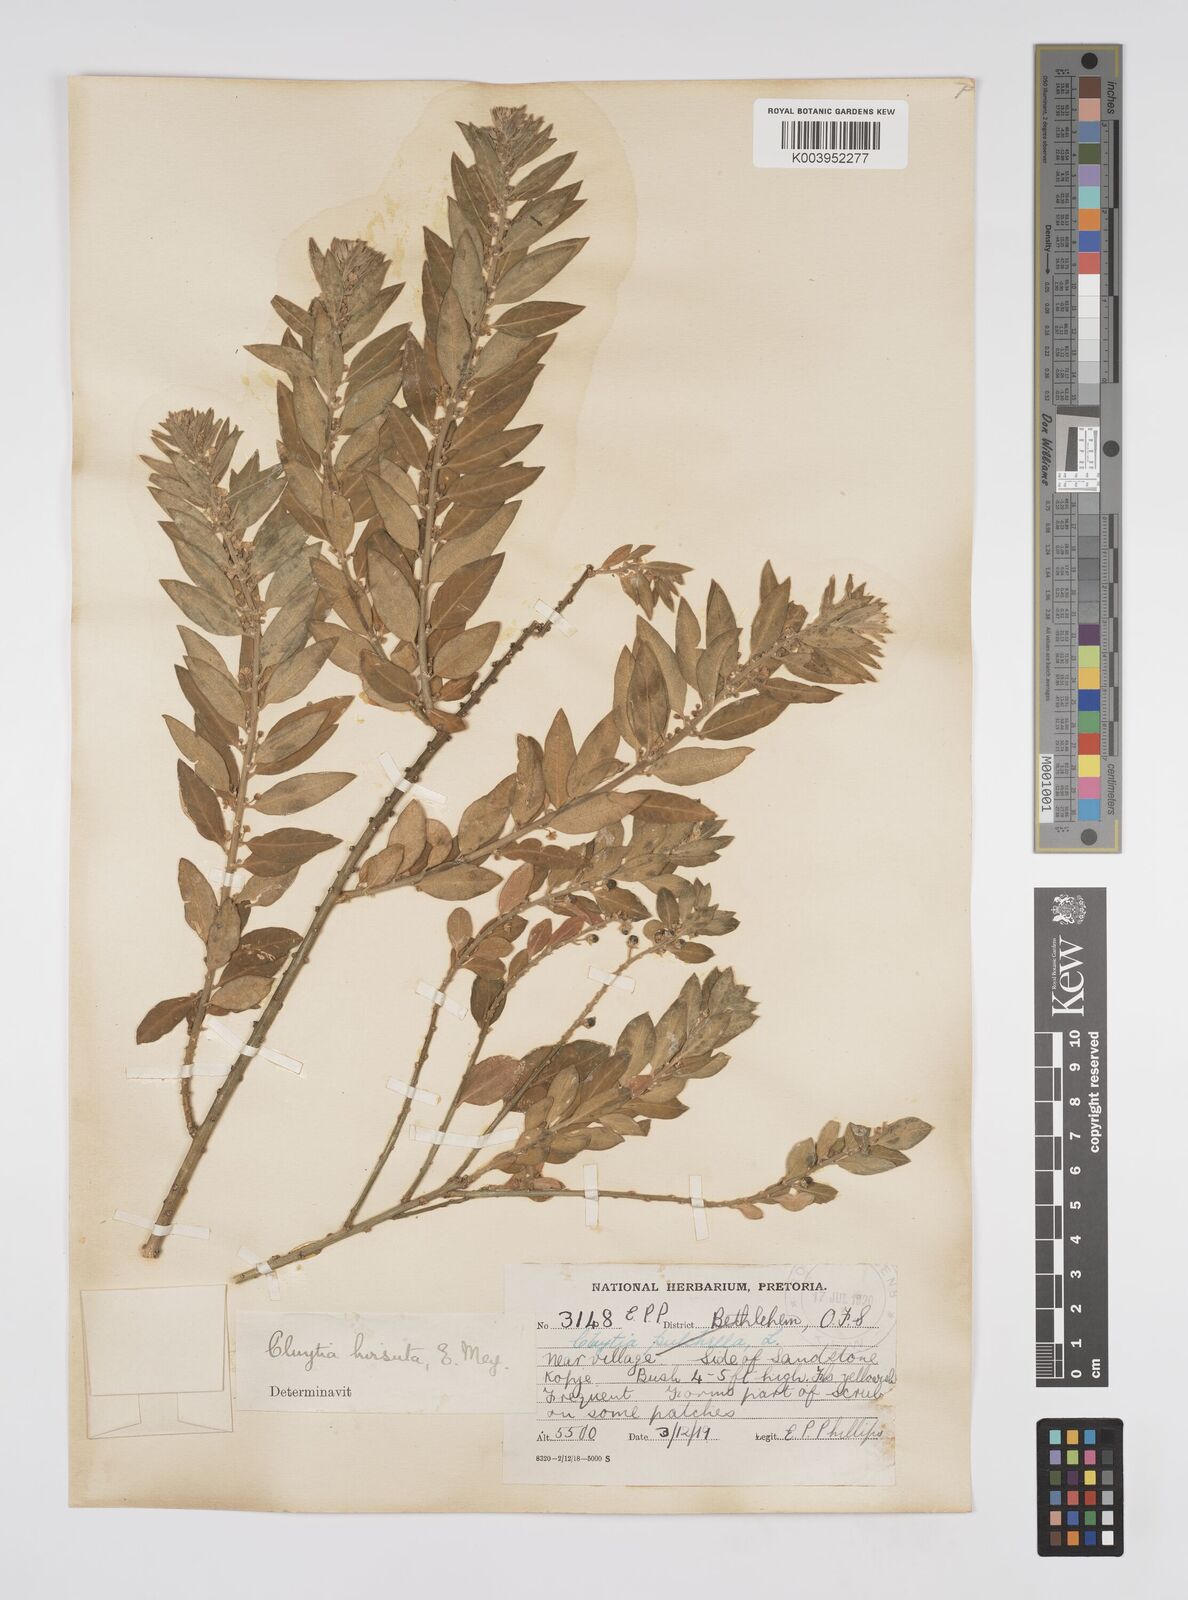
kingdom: Plantae
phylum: Tracheophyta
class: Magnoliopsida
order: Malpighiales
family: Peraceae
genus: Clutia
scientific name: Clutia affinis
